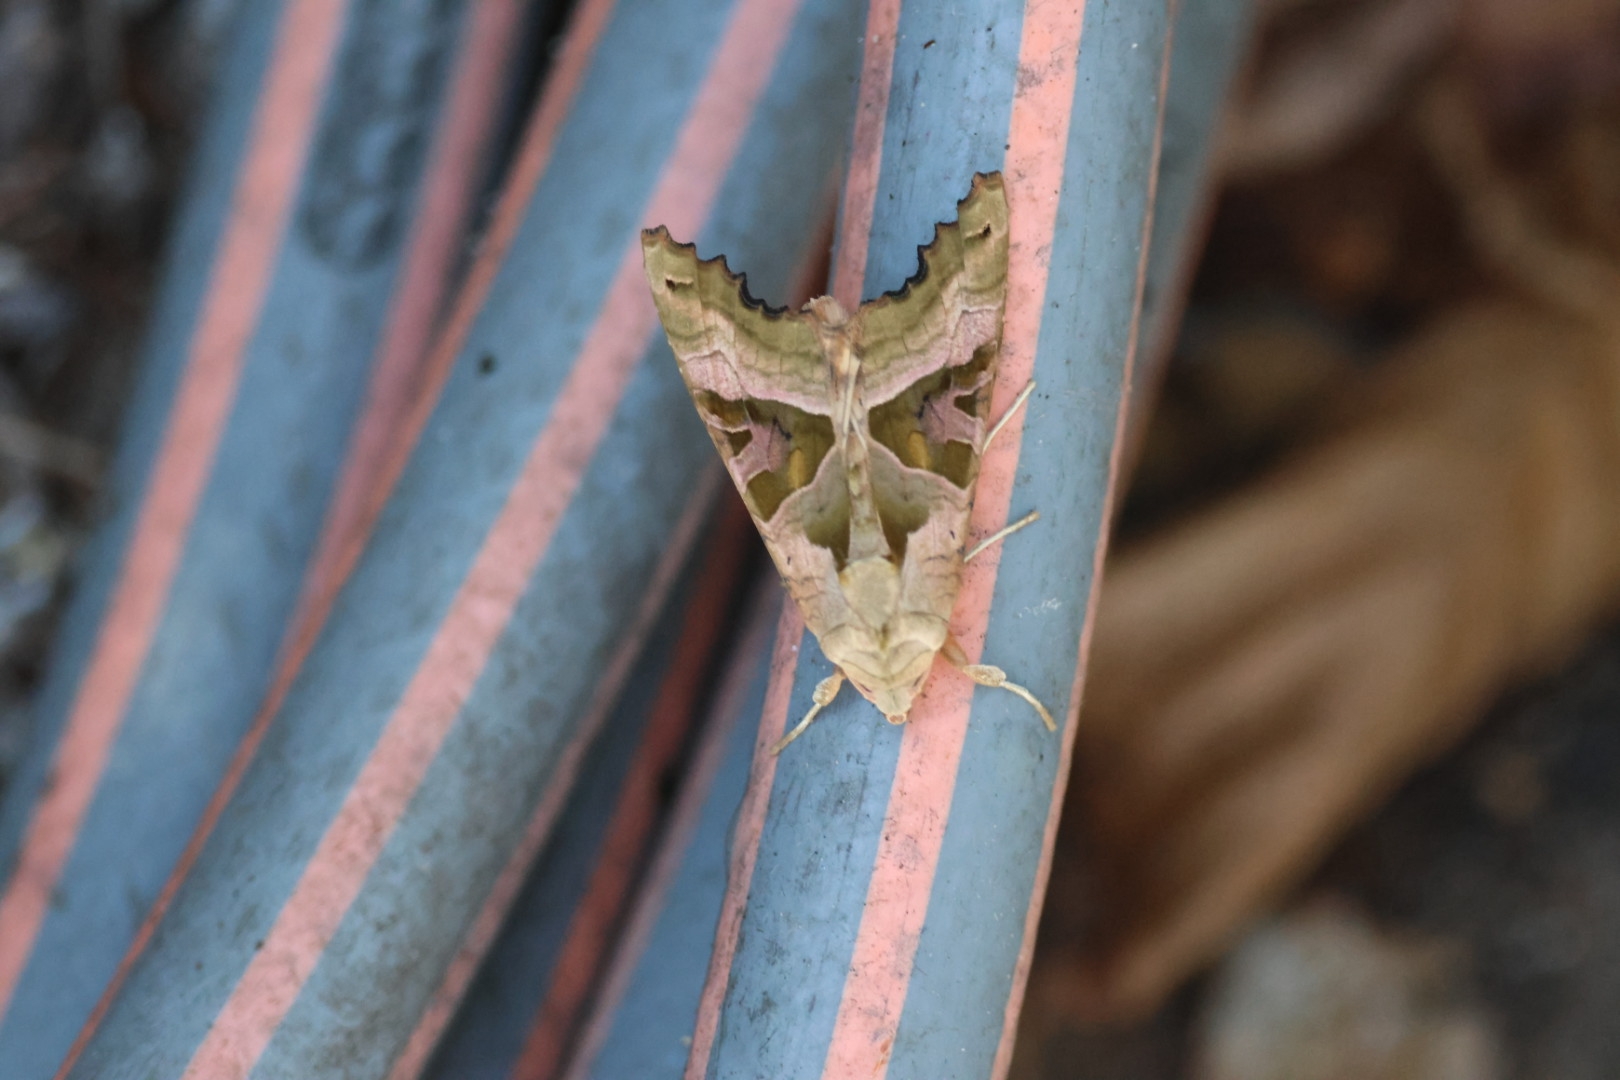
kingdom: Animalia
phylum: Arthropoda
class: Insecta
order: Lepidoptera
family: Noctuidae
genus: Phlogophora
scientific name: Phlogophora meticulosa
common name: Agatugle
